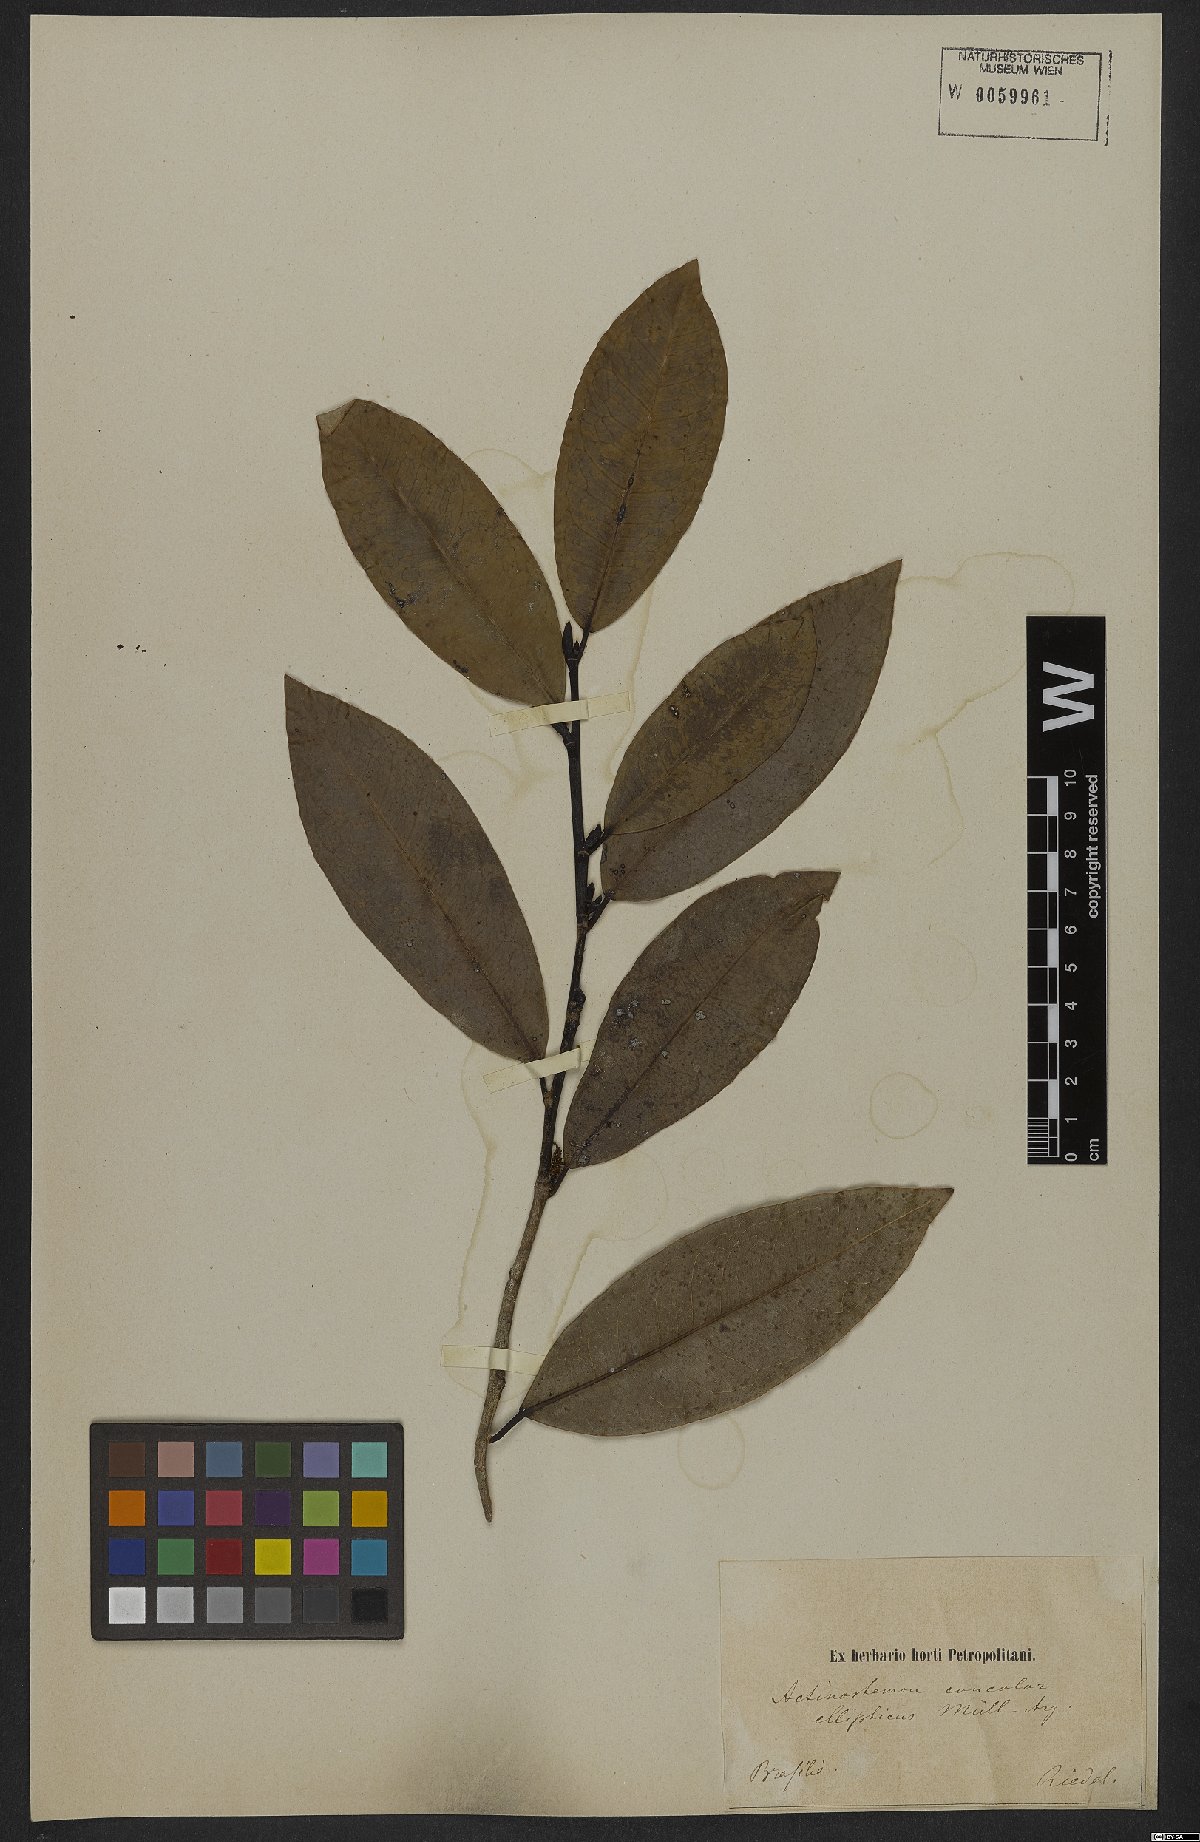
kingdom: Plantae
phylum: Tracheophyta
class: Magnoliopsida
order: Malpighiales
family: Euphorbiaceae
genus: Actinostemon
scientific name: Actinostemon concolor
